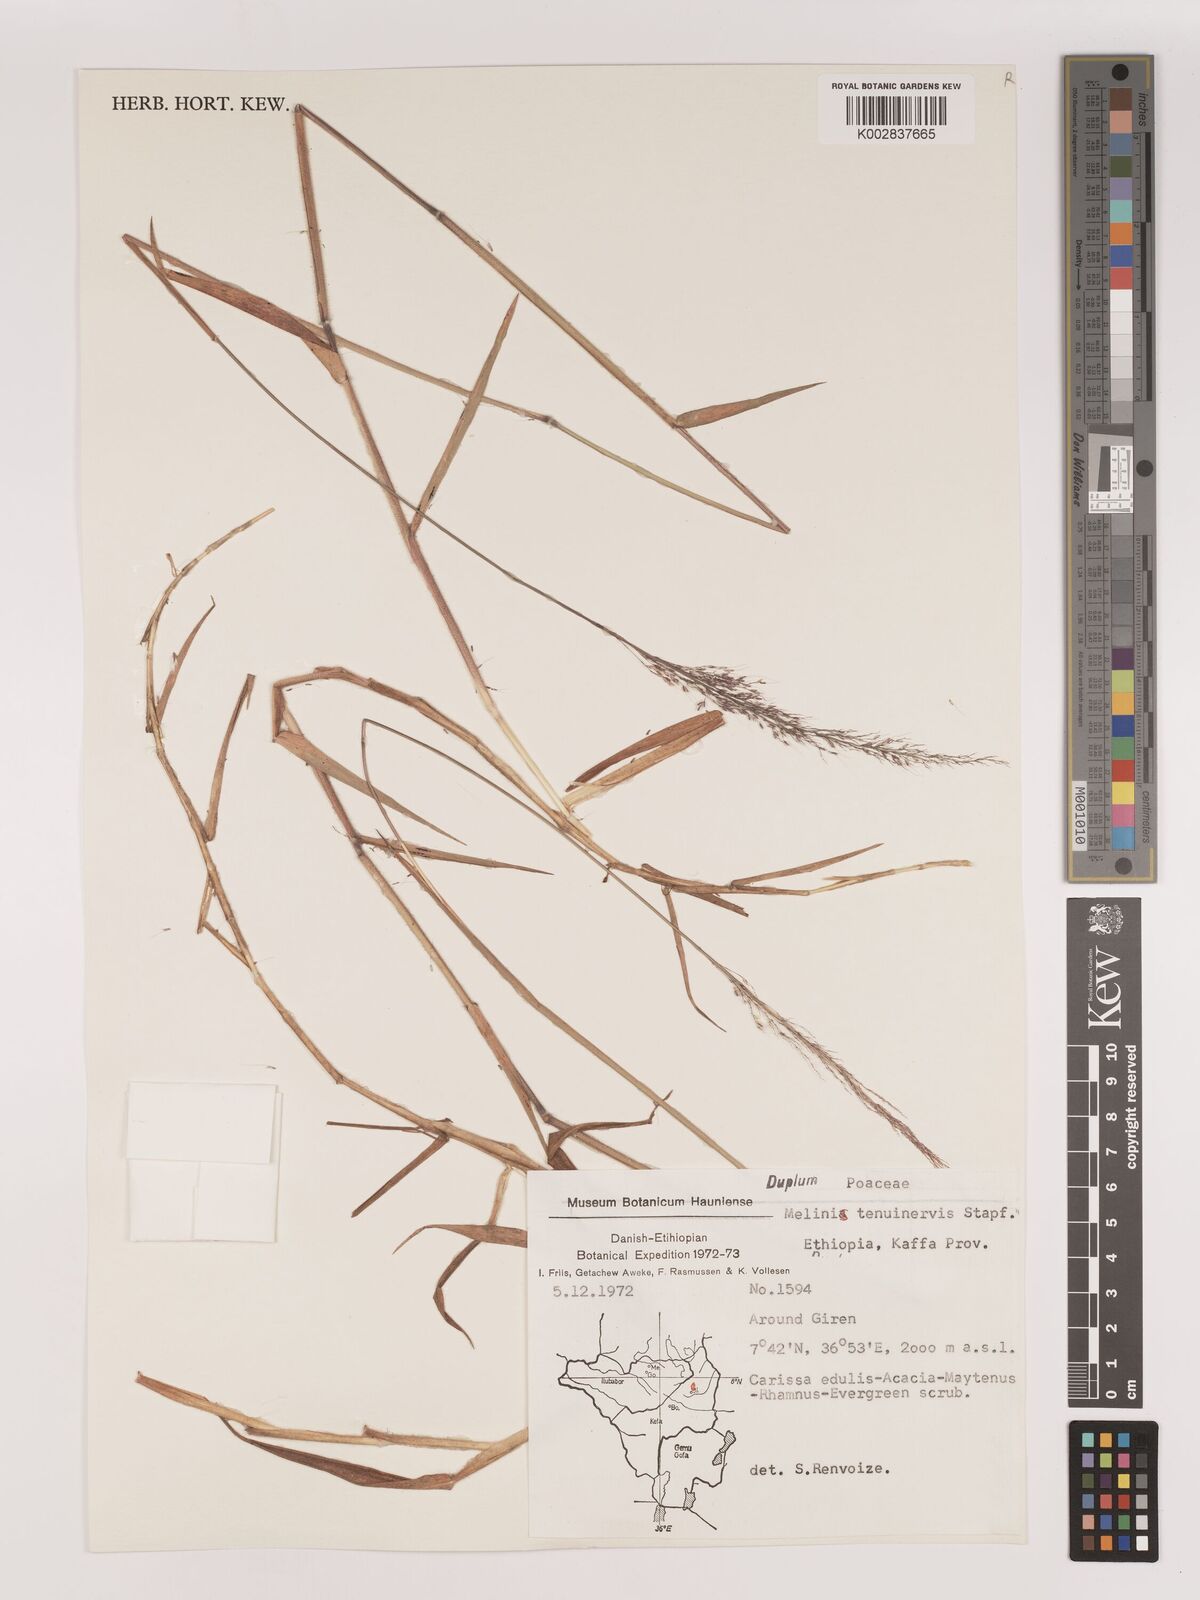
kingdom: Plantae
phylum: Tracheophyta
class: Liliopsida
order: Poales
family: Poaceae
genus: Melinis
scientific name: Melinis minutiflora
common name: Molassesgrass
